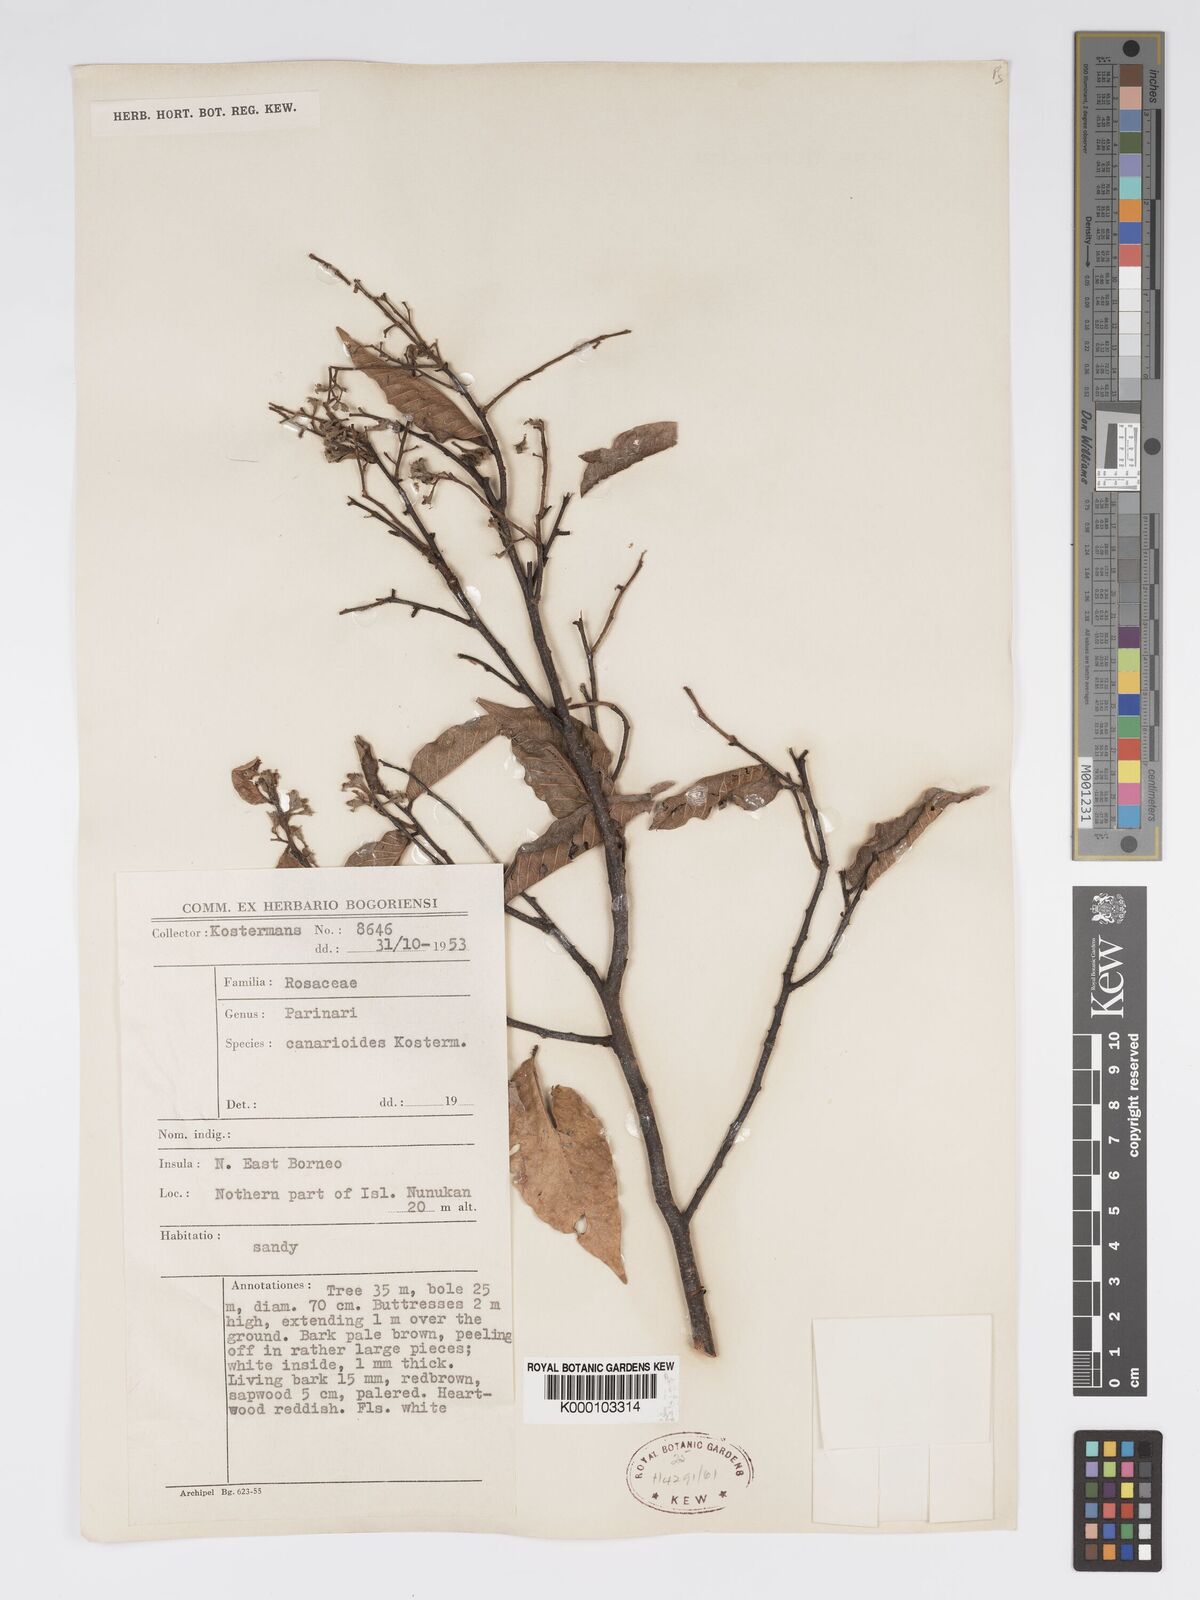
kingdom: Plantae
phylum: Tracheophyta
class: Magnoliopsida
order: Malpighiales
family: Chrysobalanaceae
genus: Parinari
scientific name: Parinari canarioides
